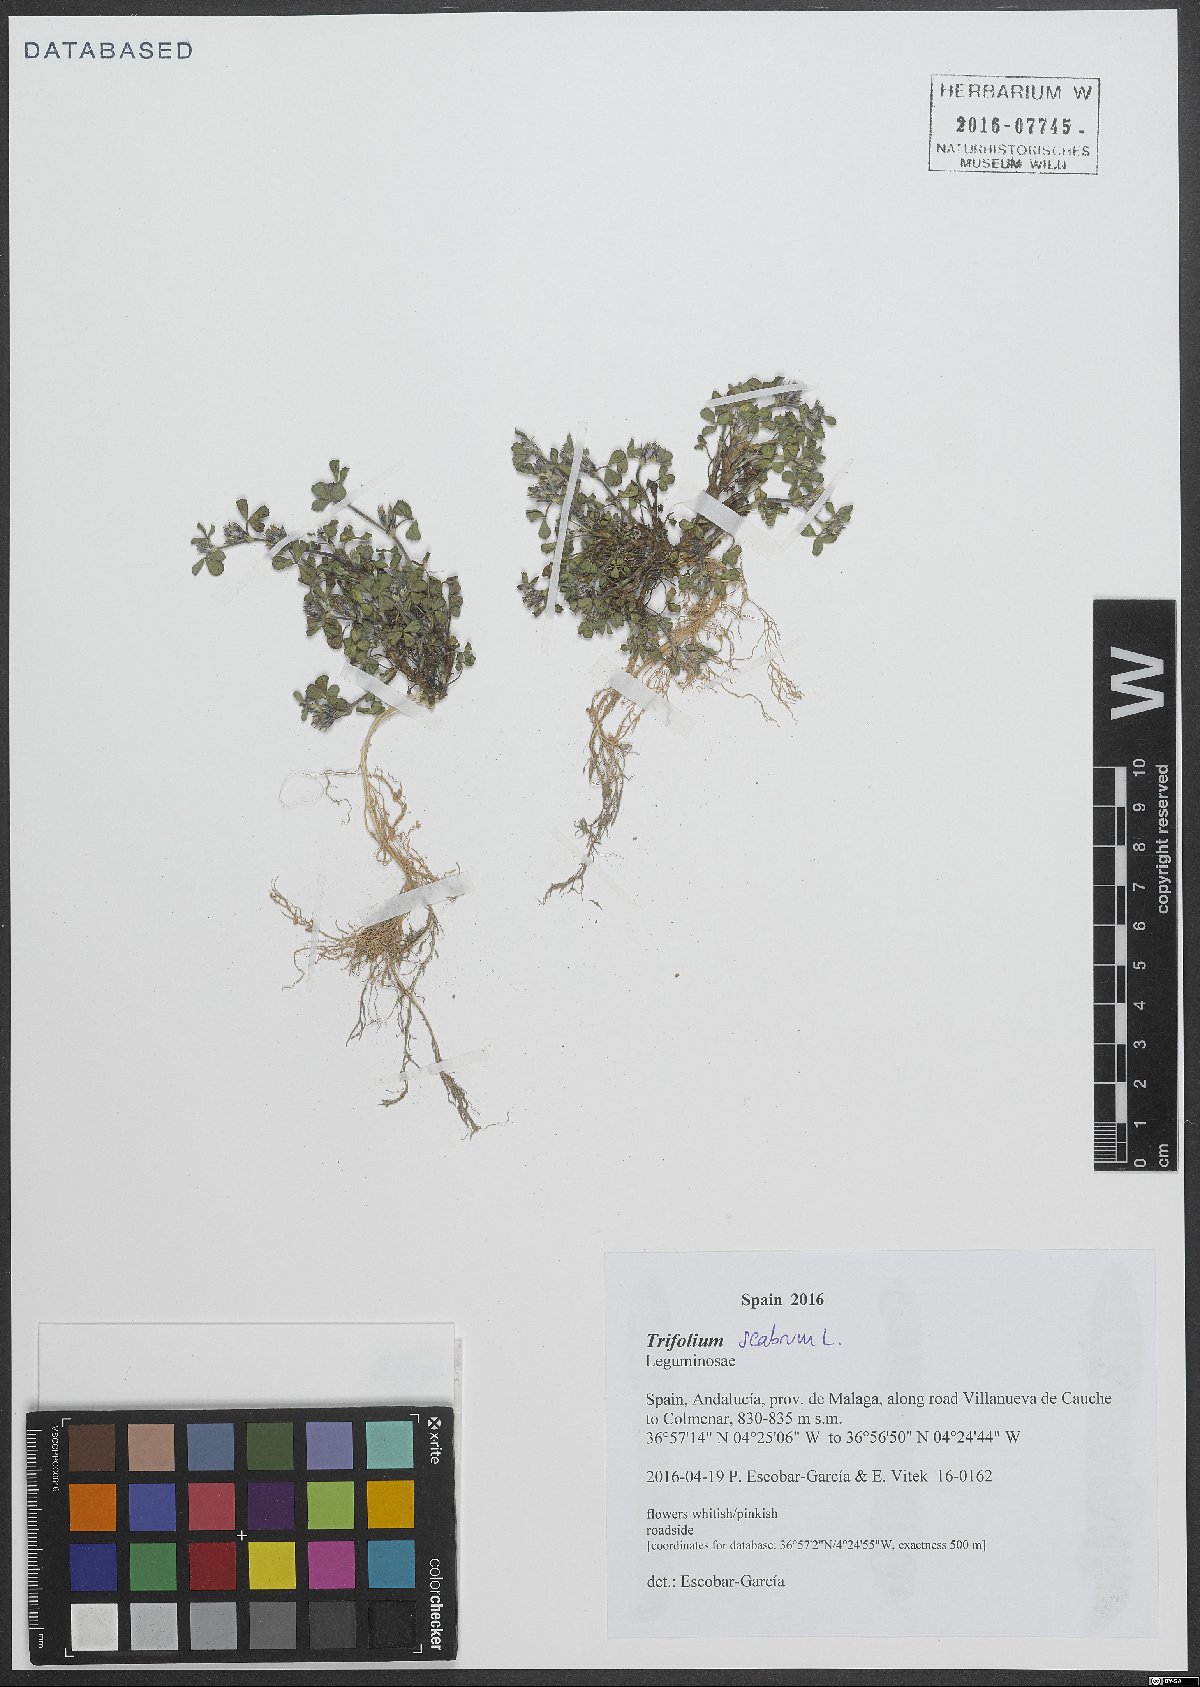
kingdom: Plantae
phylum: Tracheophyta
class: Magnoliopsida
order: Fabales
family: Fabaceae
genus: Trifolium
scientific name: Trifolium scabrum
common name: Rough clover
